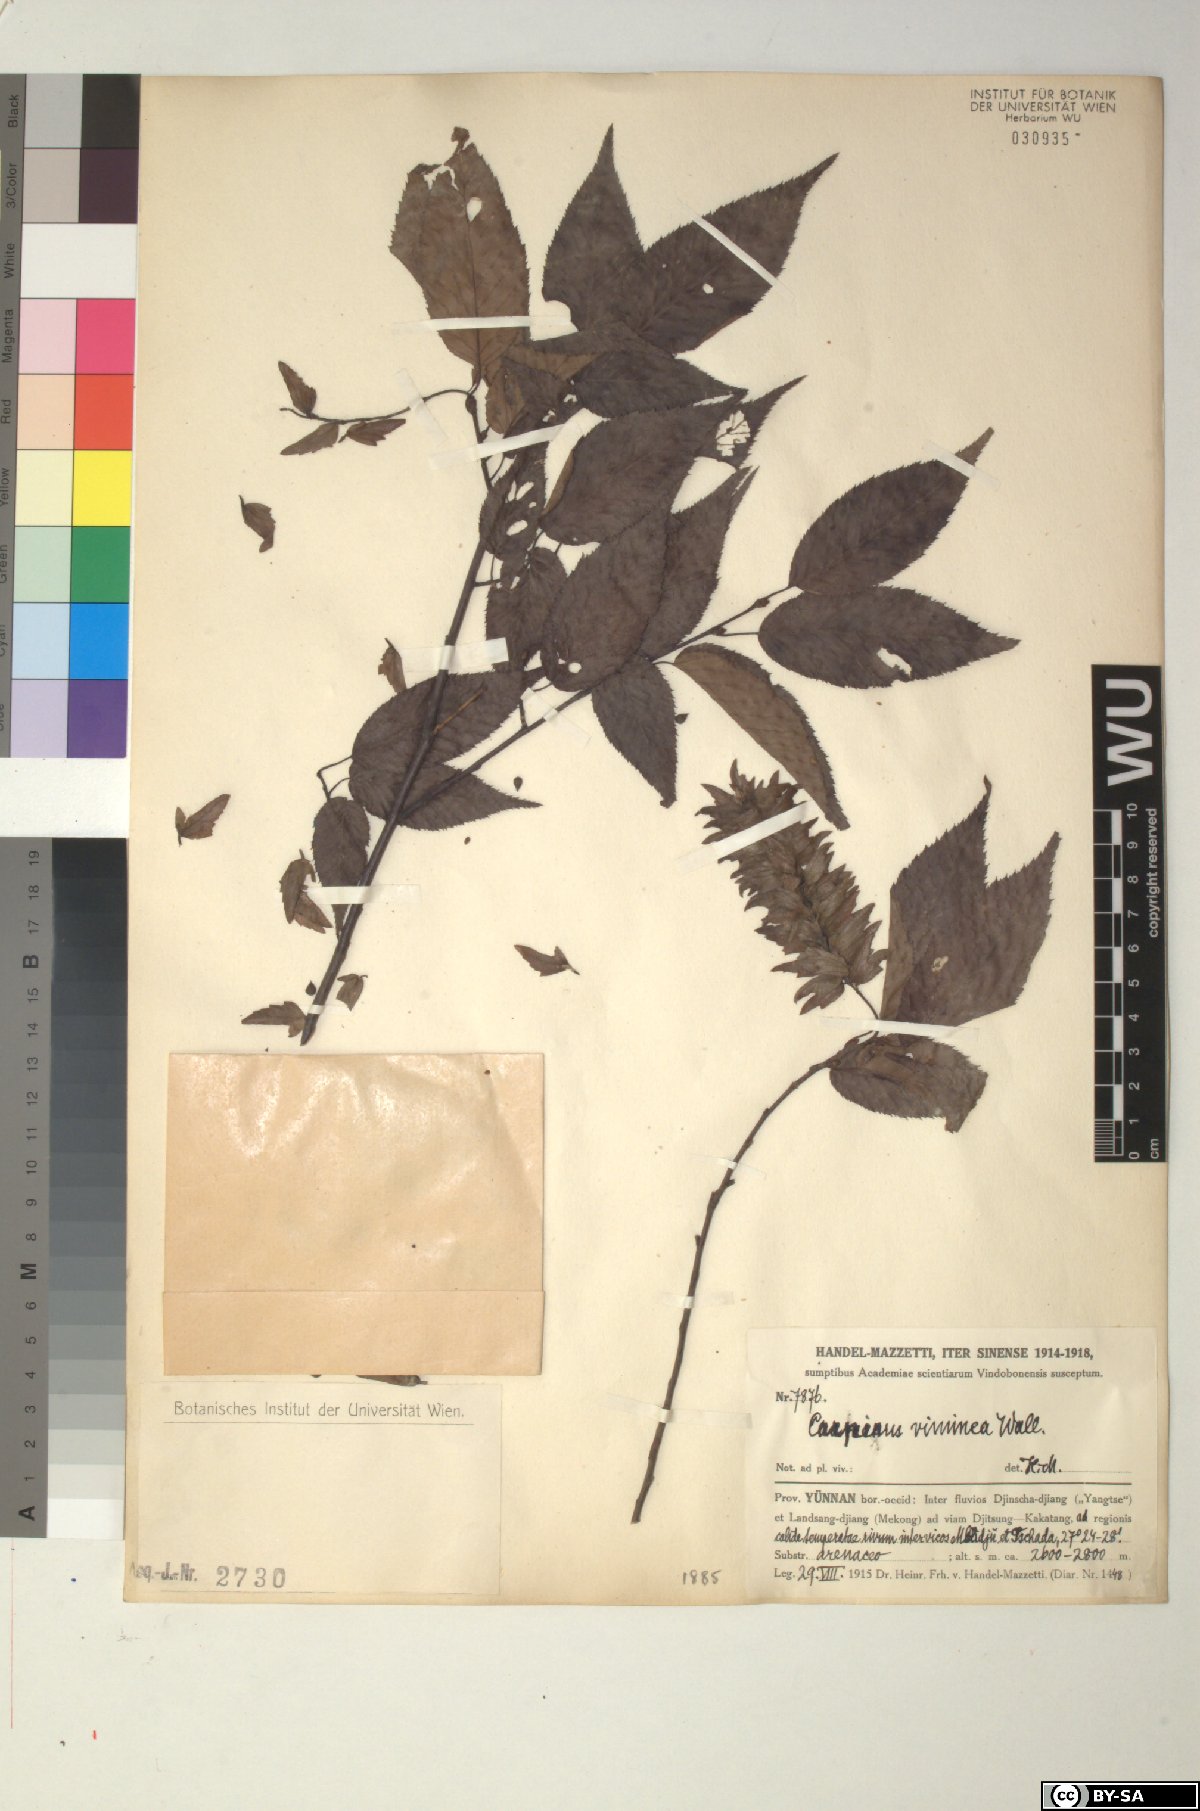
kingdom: Plantae
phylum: Tracheophyta
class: Magnoliopsida
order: Fagales
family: Betulaceae
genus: Carpinus
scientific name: Carpinus viminea
